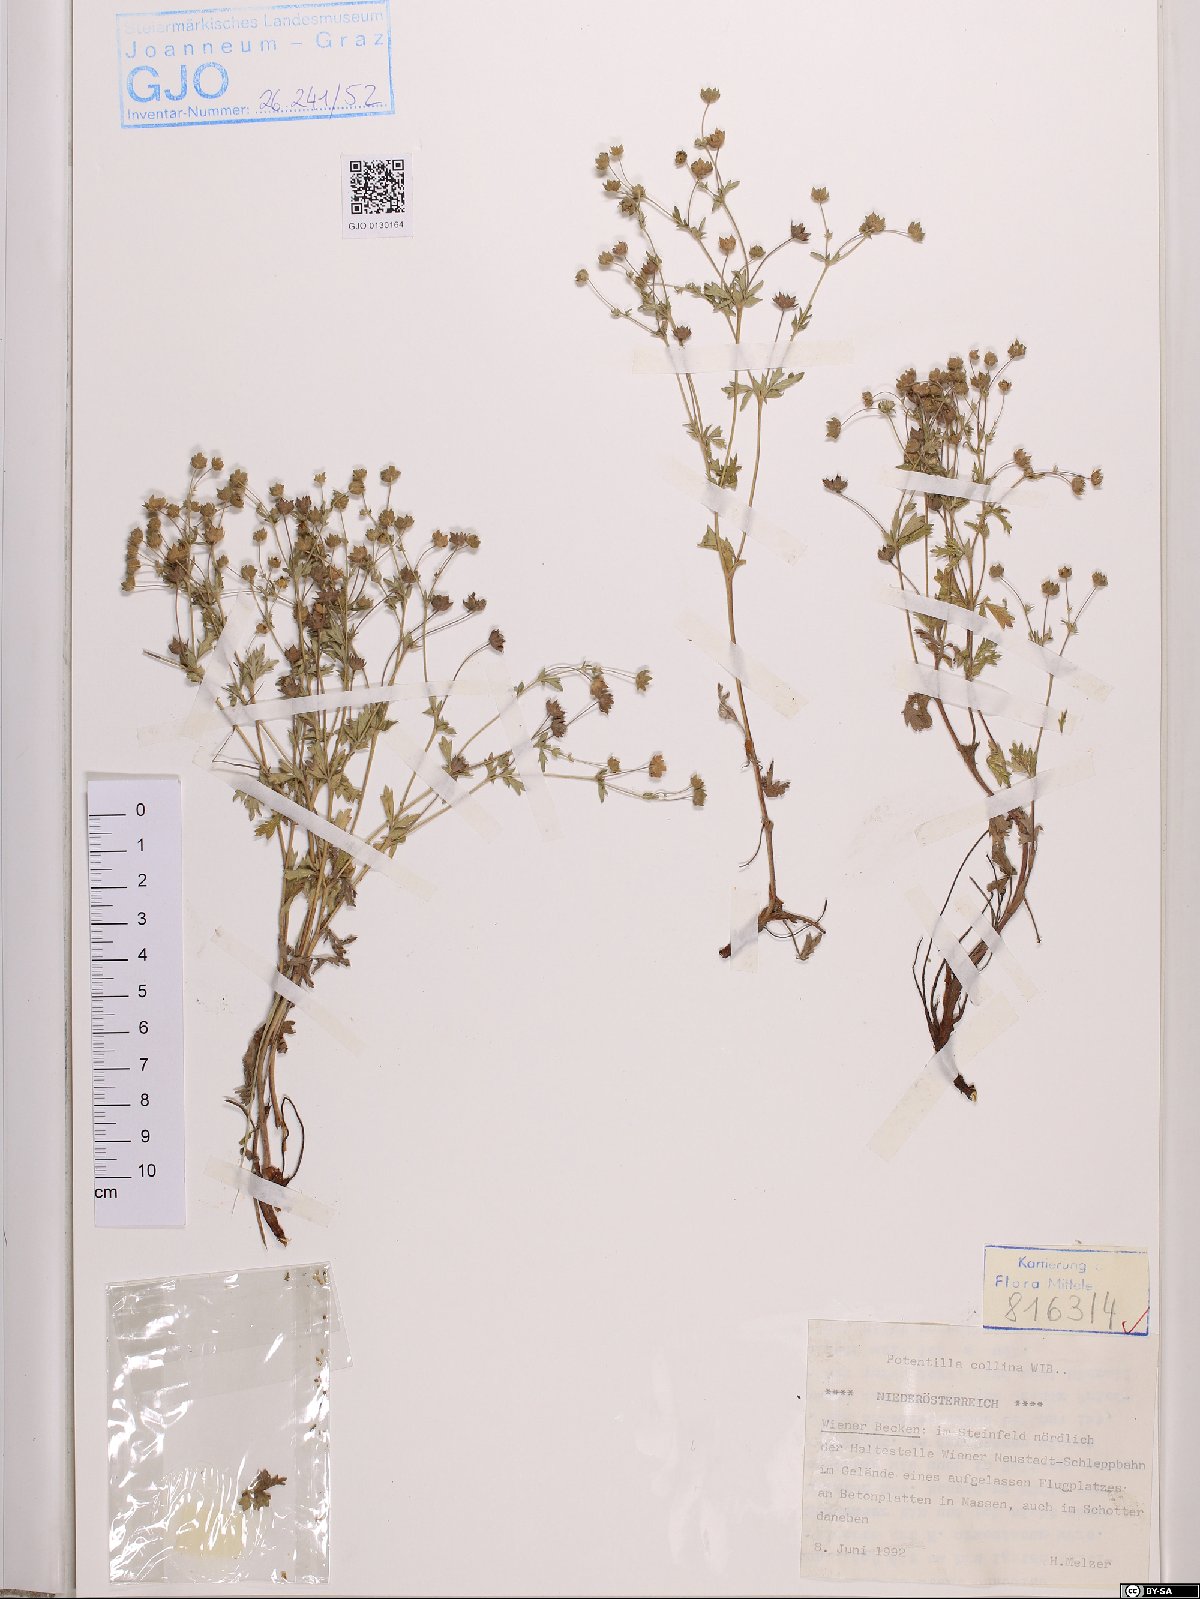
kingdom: Plantae
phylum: Tracheophyta
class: Magnoliopsida
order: Rosales
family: Rosaceae
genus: Potentilla
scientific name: Potentilla collina
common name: Palmleaf cinquefoil
